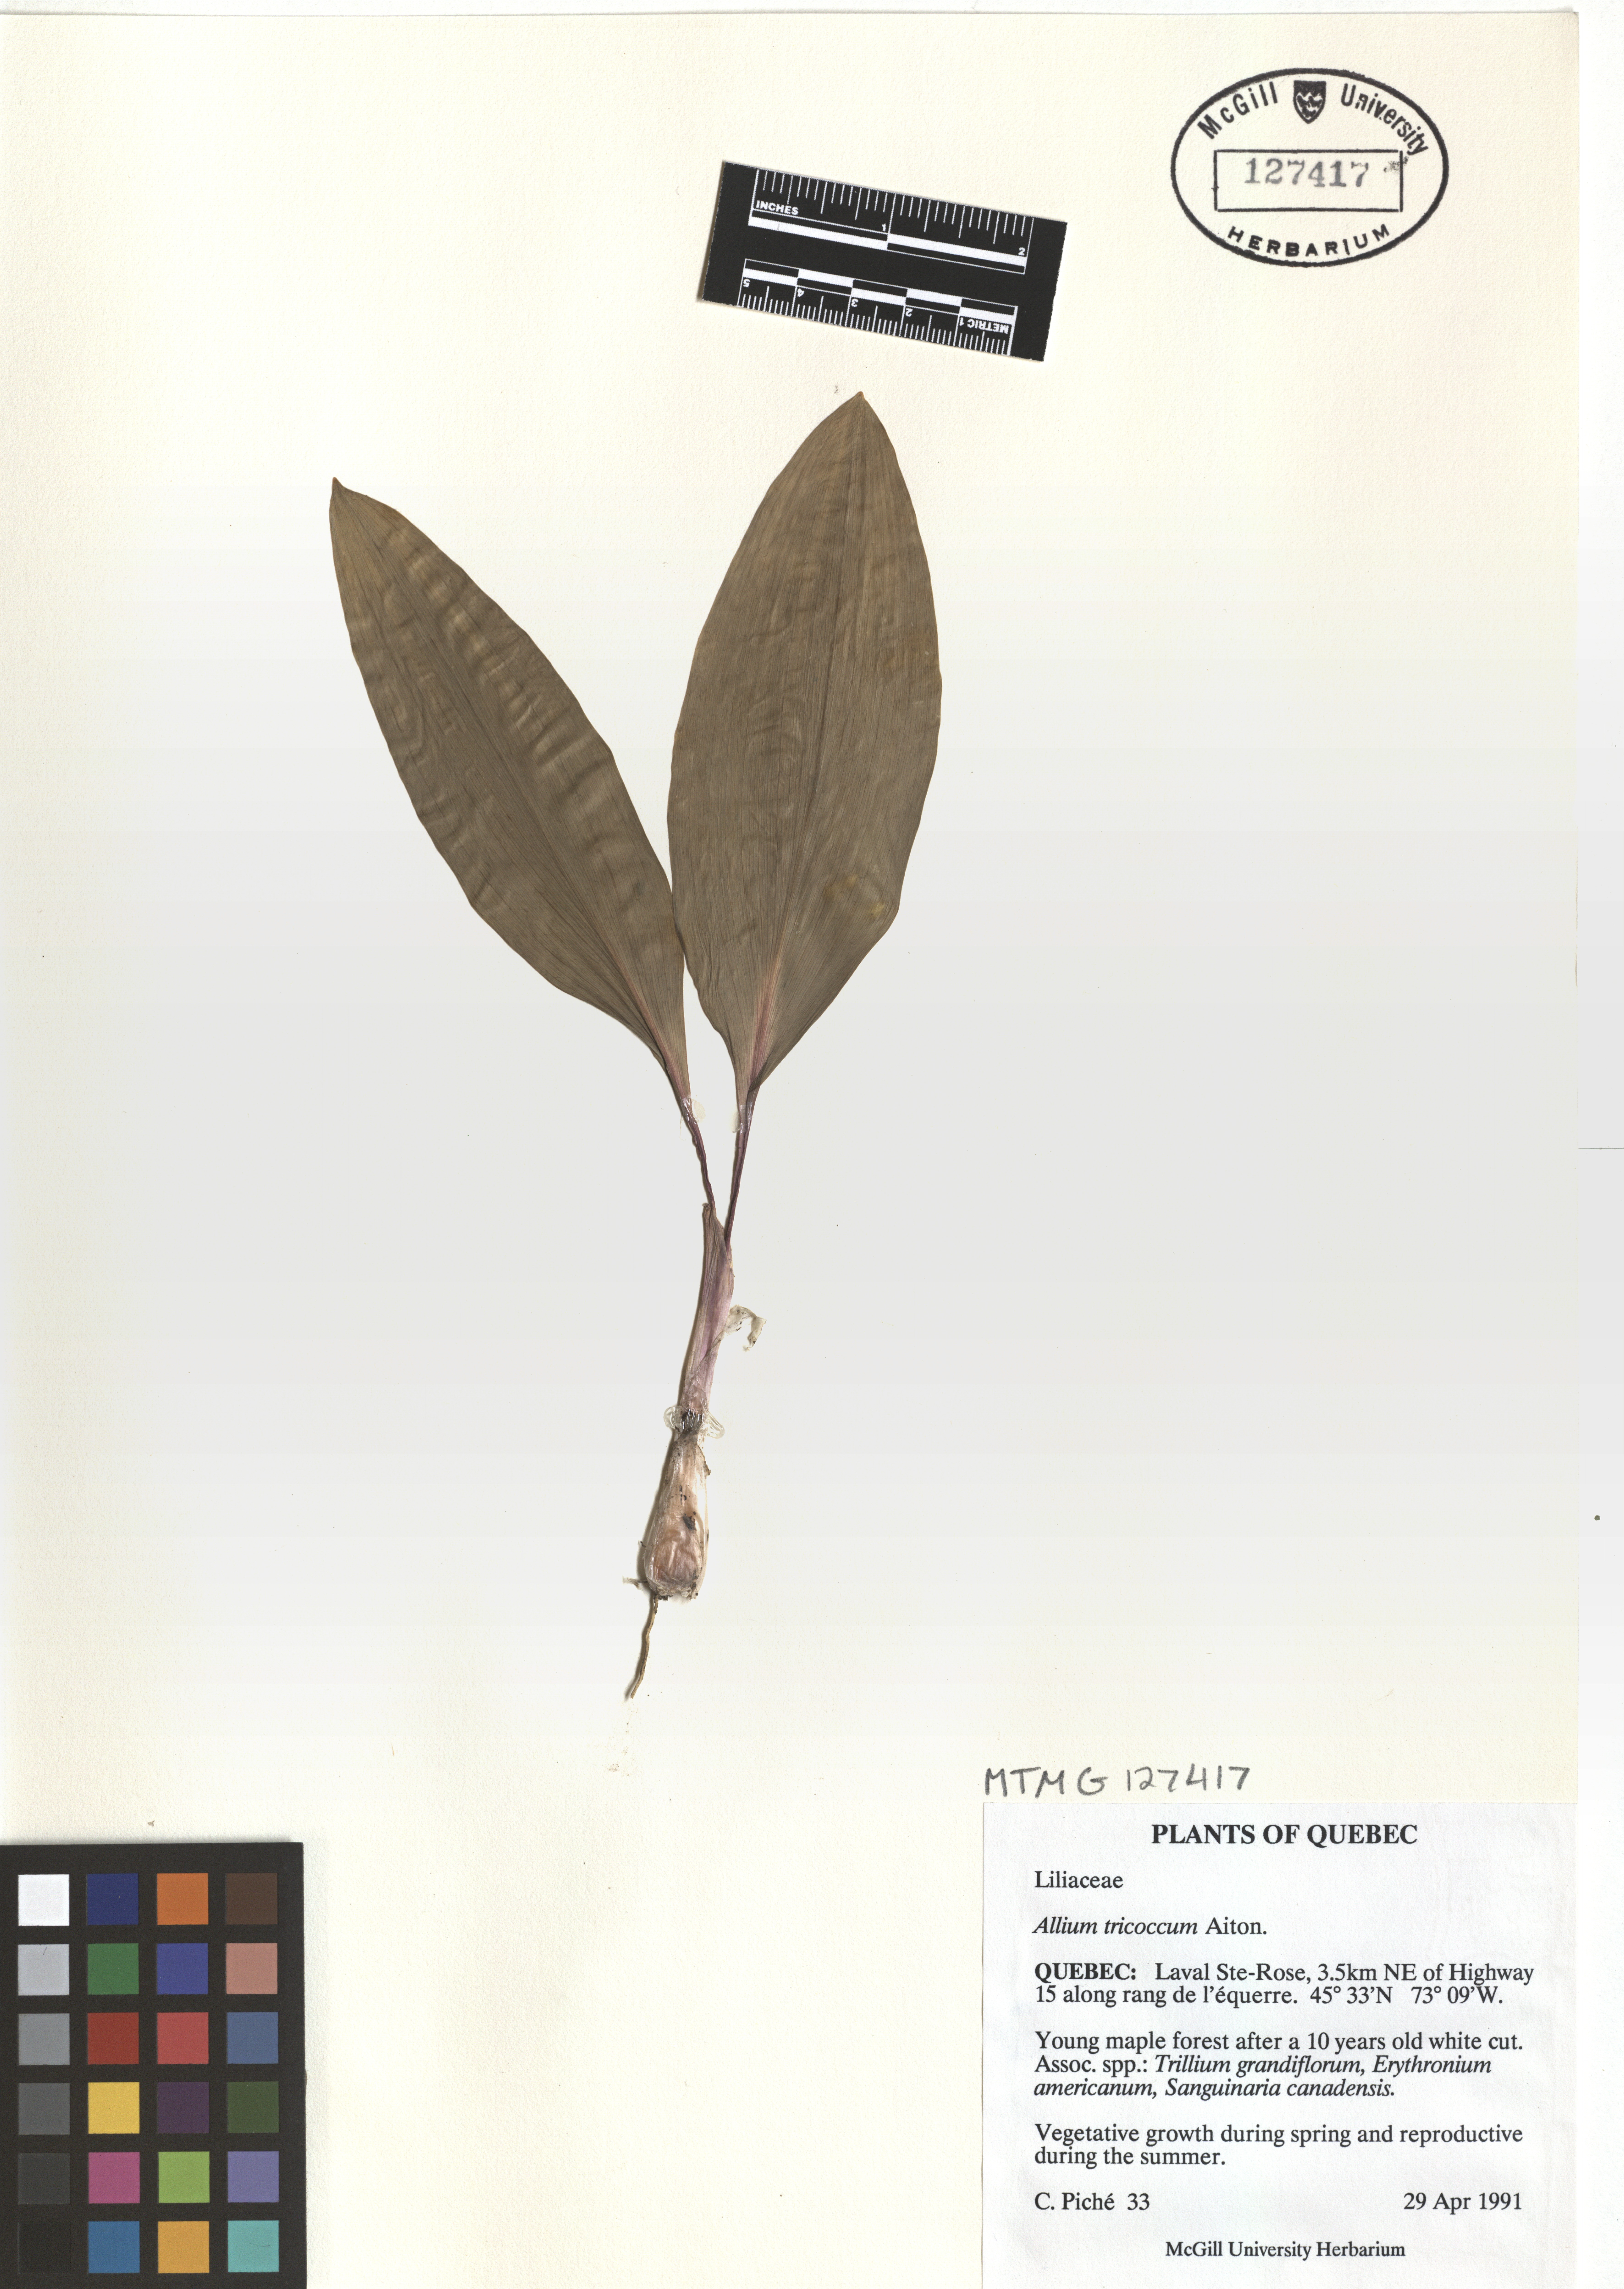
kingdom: Plantae
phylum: Tracheophyta
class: Liliopsida
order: Asparagales
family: Amaryllidaceae
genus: Allium
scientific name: Allium tricoccum
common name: Ramp
